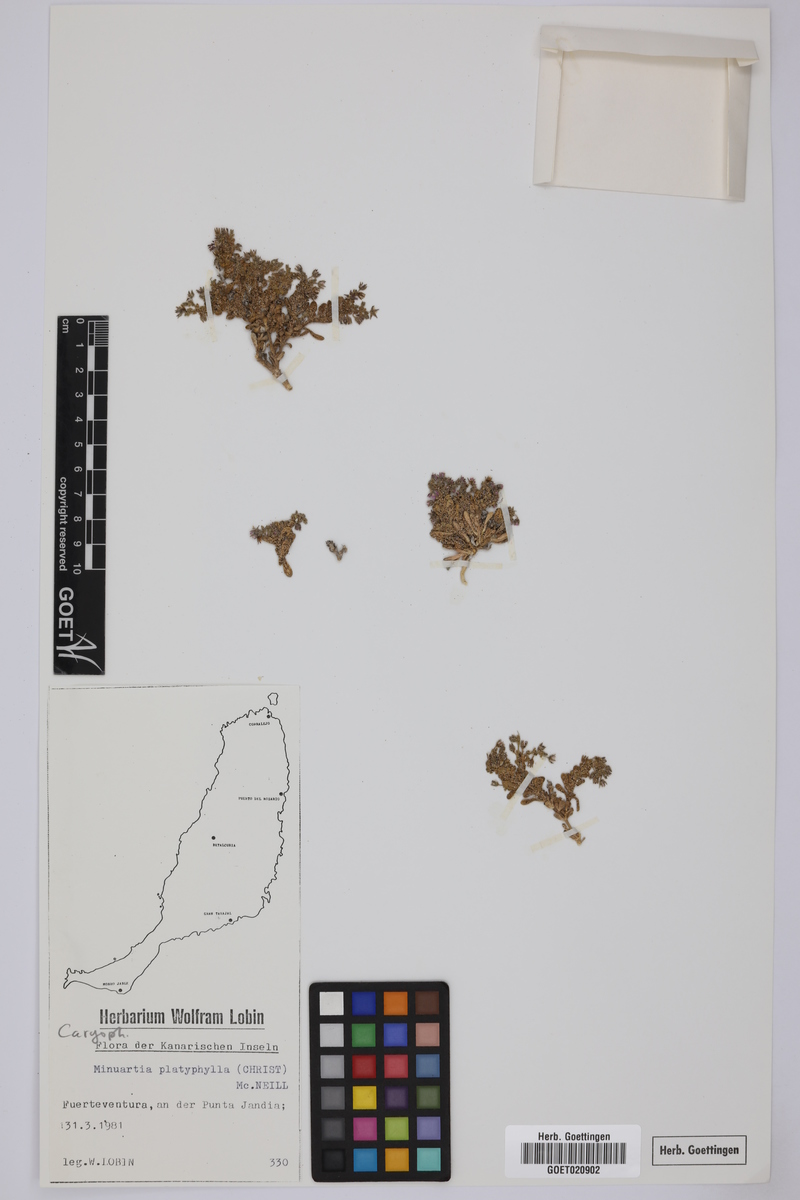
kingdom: Plantae
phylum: Tracheophyta
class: Magnoliopsida
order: Caryophyllales
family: Caryophyllaceae
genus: Rhodalsine
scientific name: Rhodalsine geniculata
